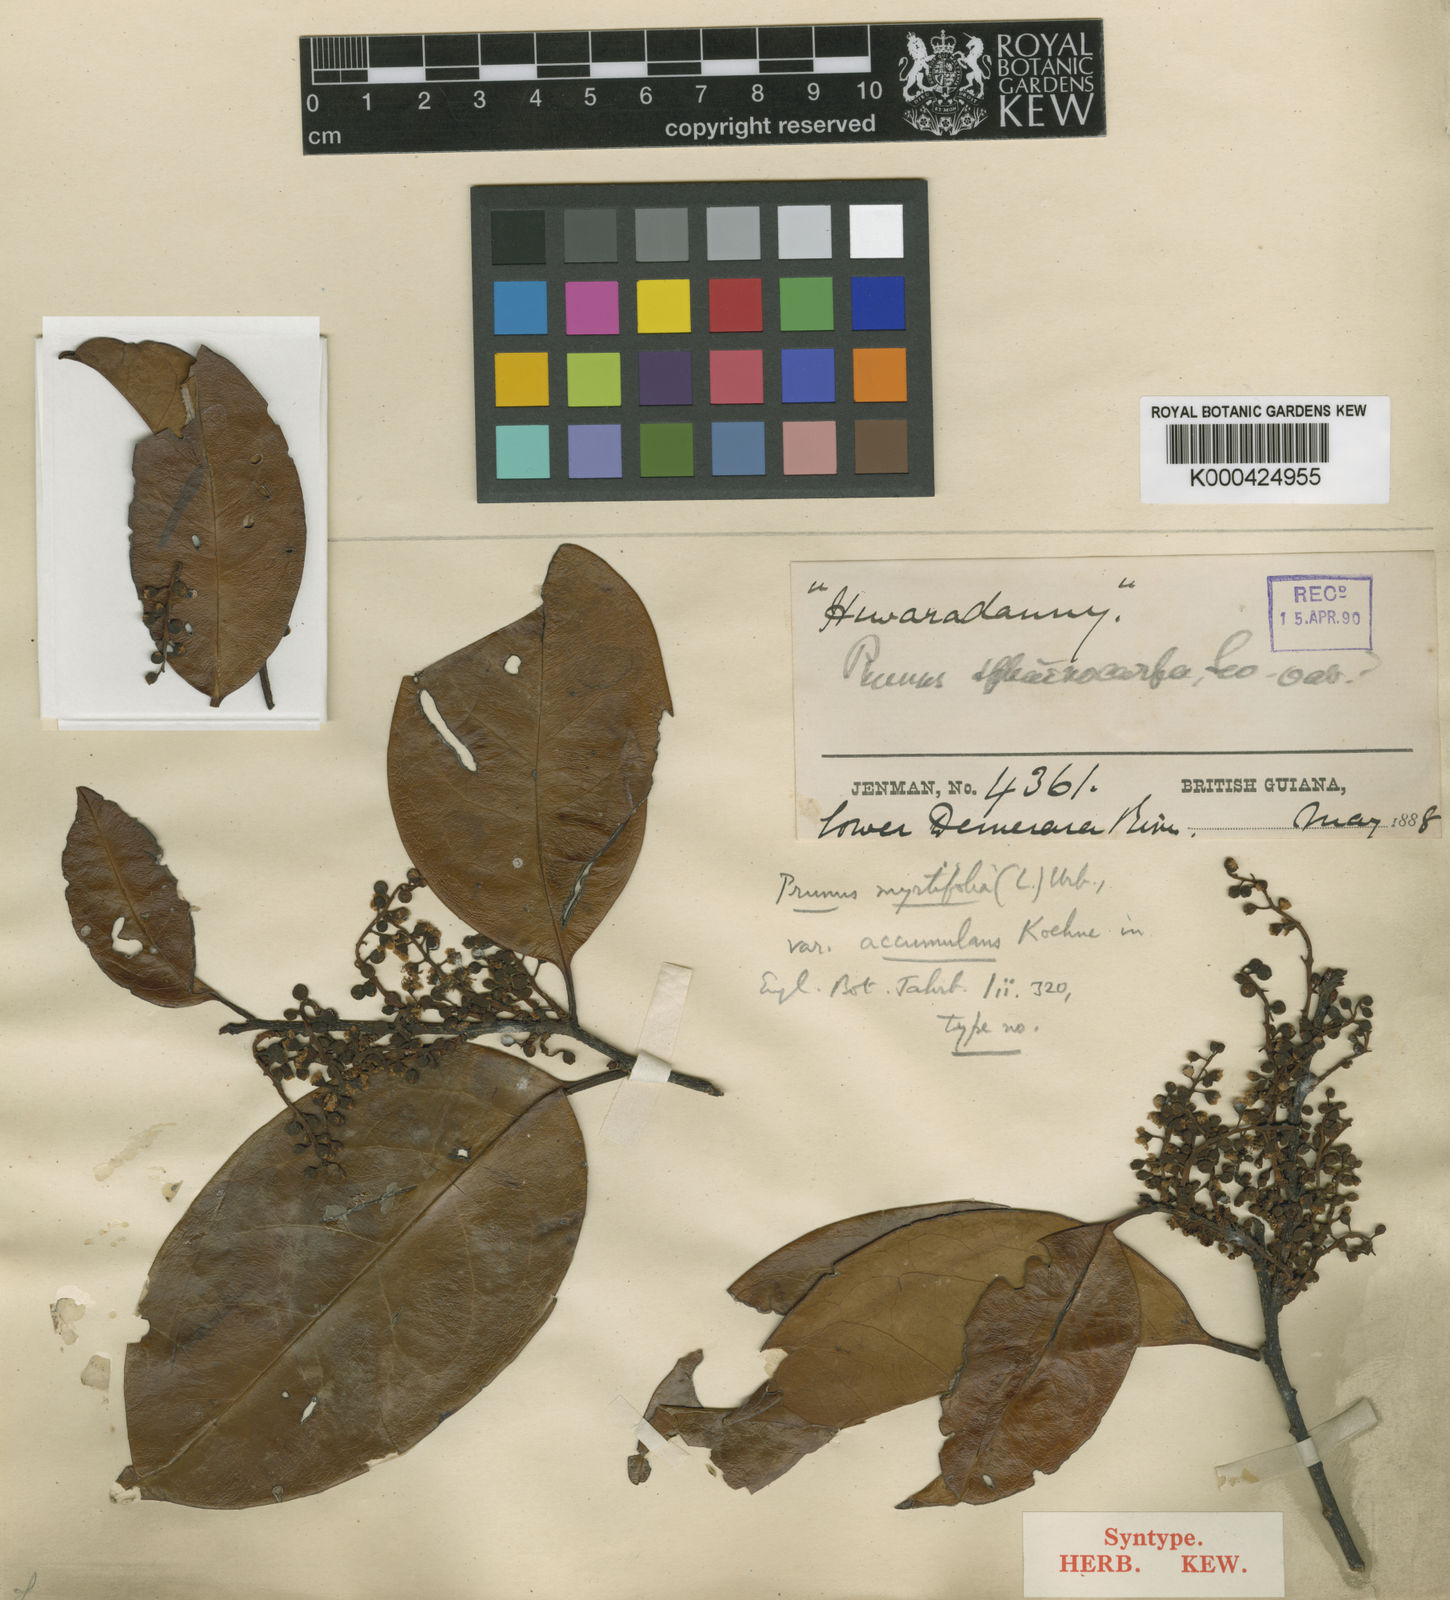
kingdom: Plantae
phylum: Tracheophyta
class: Magnoliopsida
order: Rosales
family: Rosaceae
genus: Prunus
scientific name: Prunus myrtifolia
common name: West indies cherry
